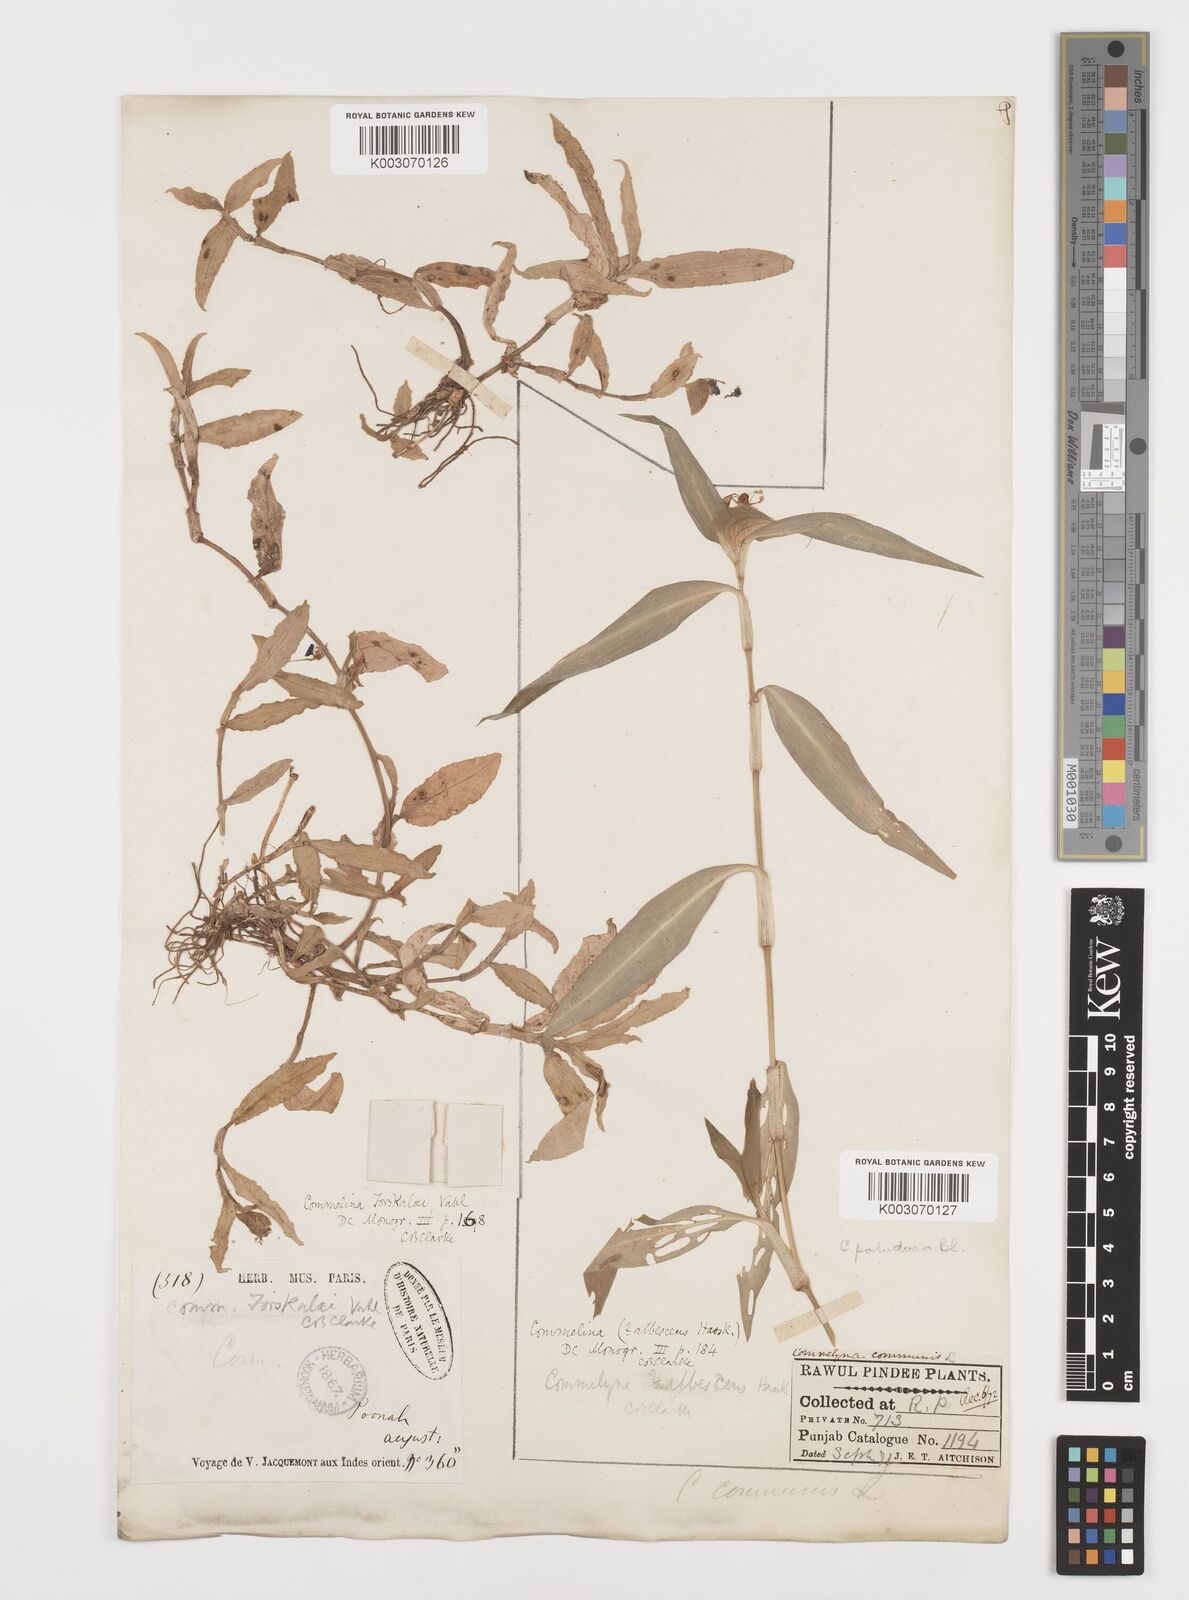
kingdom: Plantae
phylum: Tracheophyta
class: Liliopsida
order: Commelinales
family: Commelinaceae
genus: Commelina
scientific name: Commelina forskaolii
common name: Rat's ear
